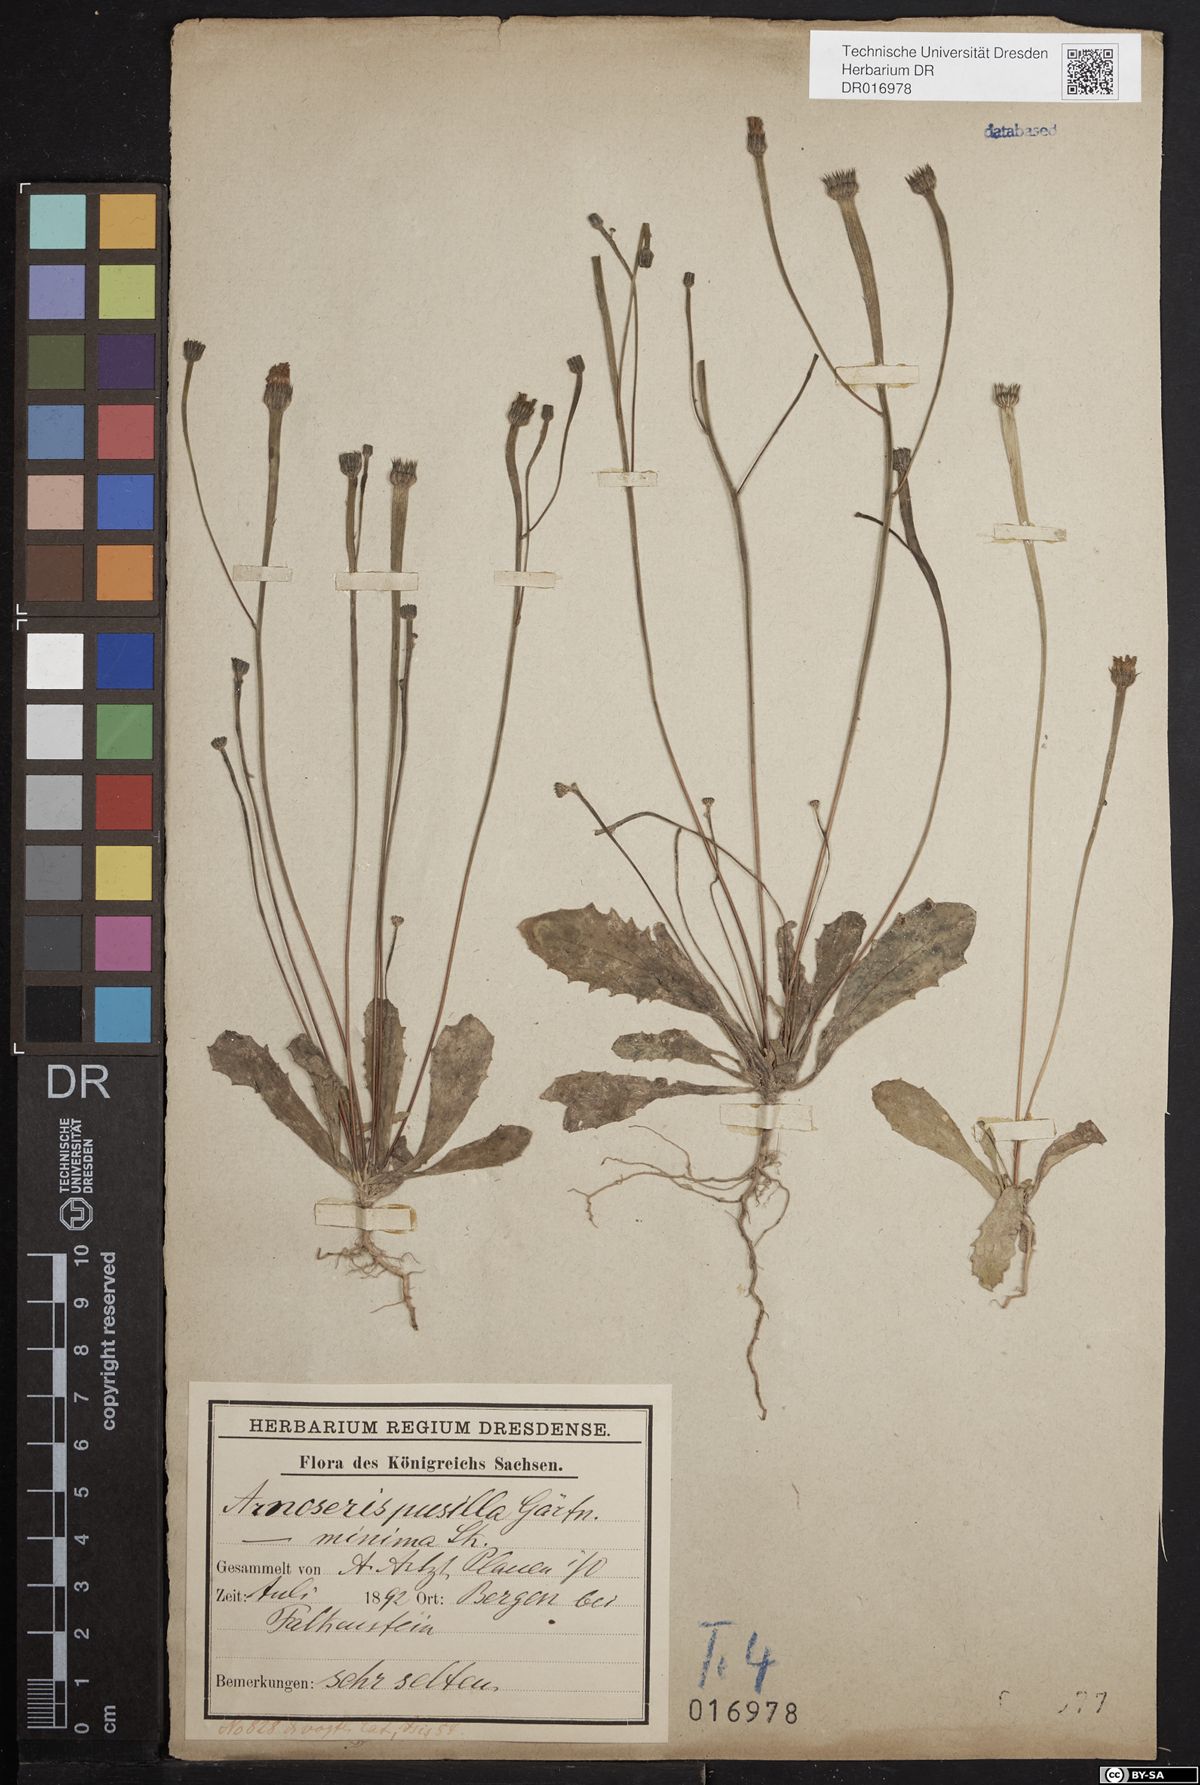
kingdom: Plantae
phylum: Tracheophyta
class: Magnoliopsida
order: Asterales
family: Asteraceae
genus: Arnoseris
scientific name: Arnoseris minima
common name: Lamb's succory
